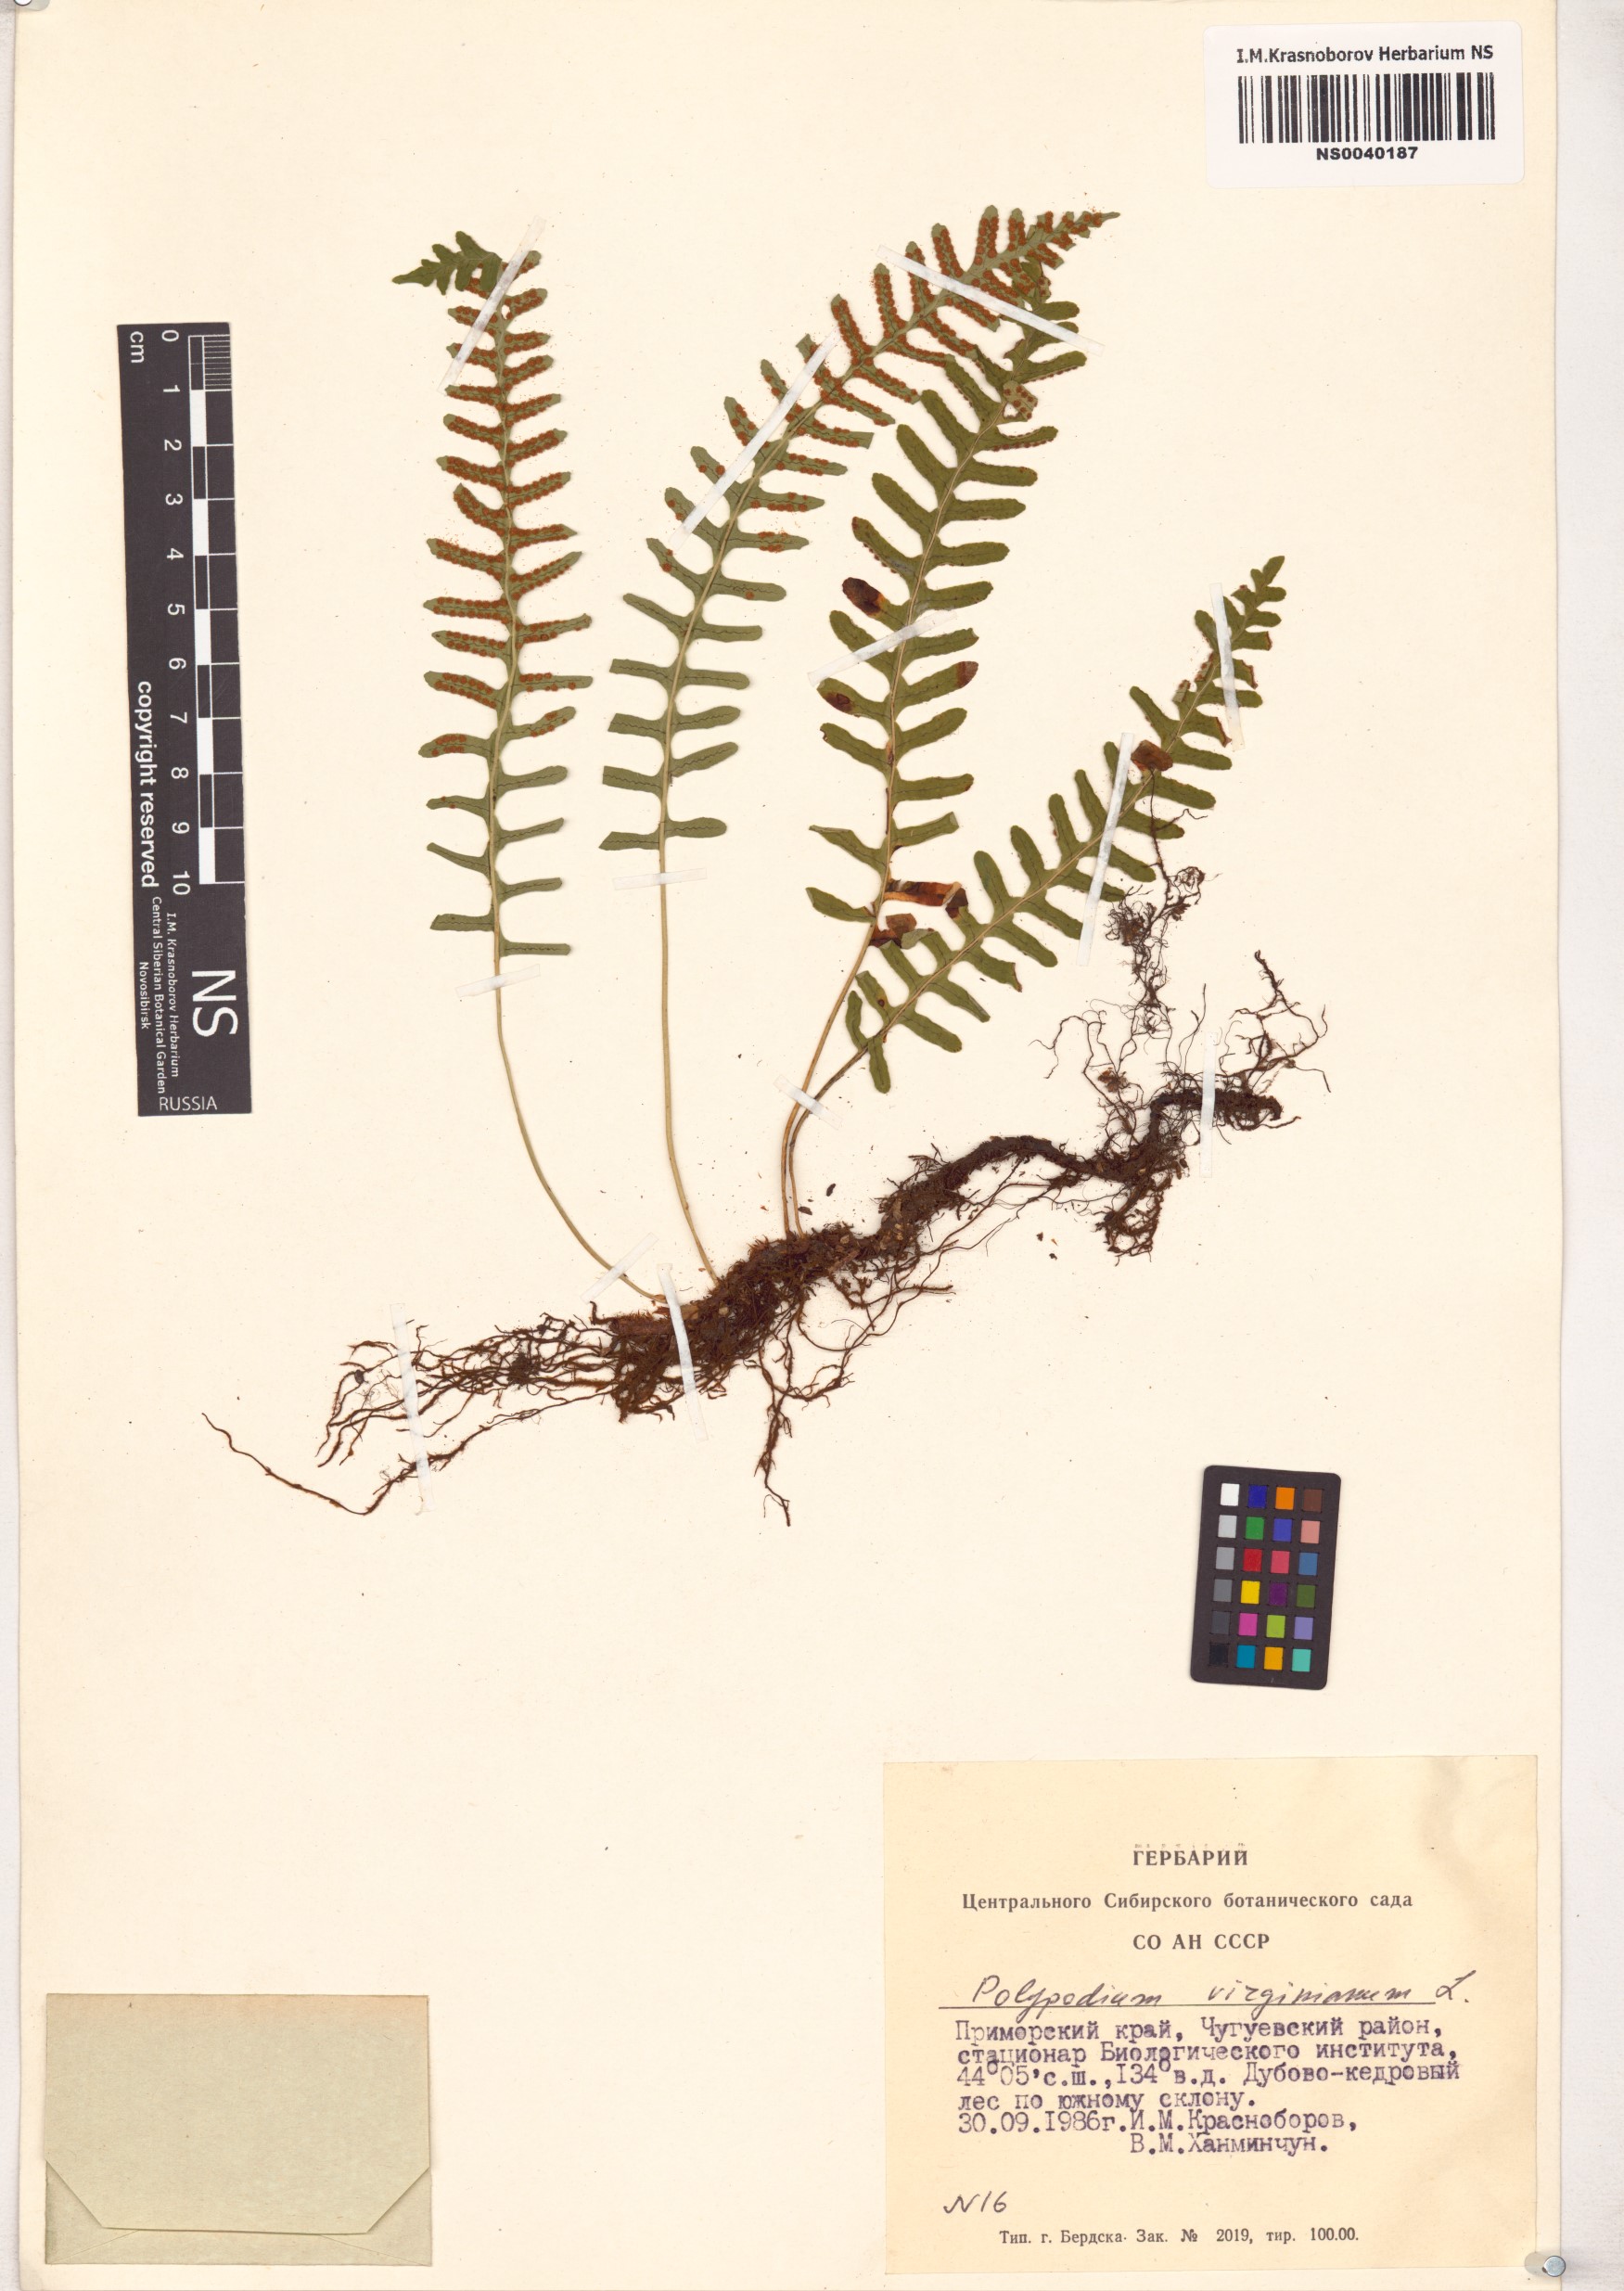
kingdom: Plantae
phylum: Tracheophyta
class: Polypodiopsida
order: Polypodiales
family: Polypodiaceae
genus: Polypodium
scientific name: Polypodium virginianum
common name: American wall fern
